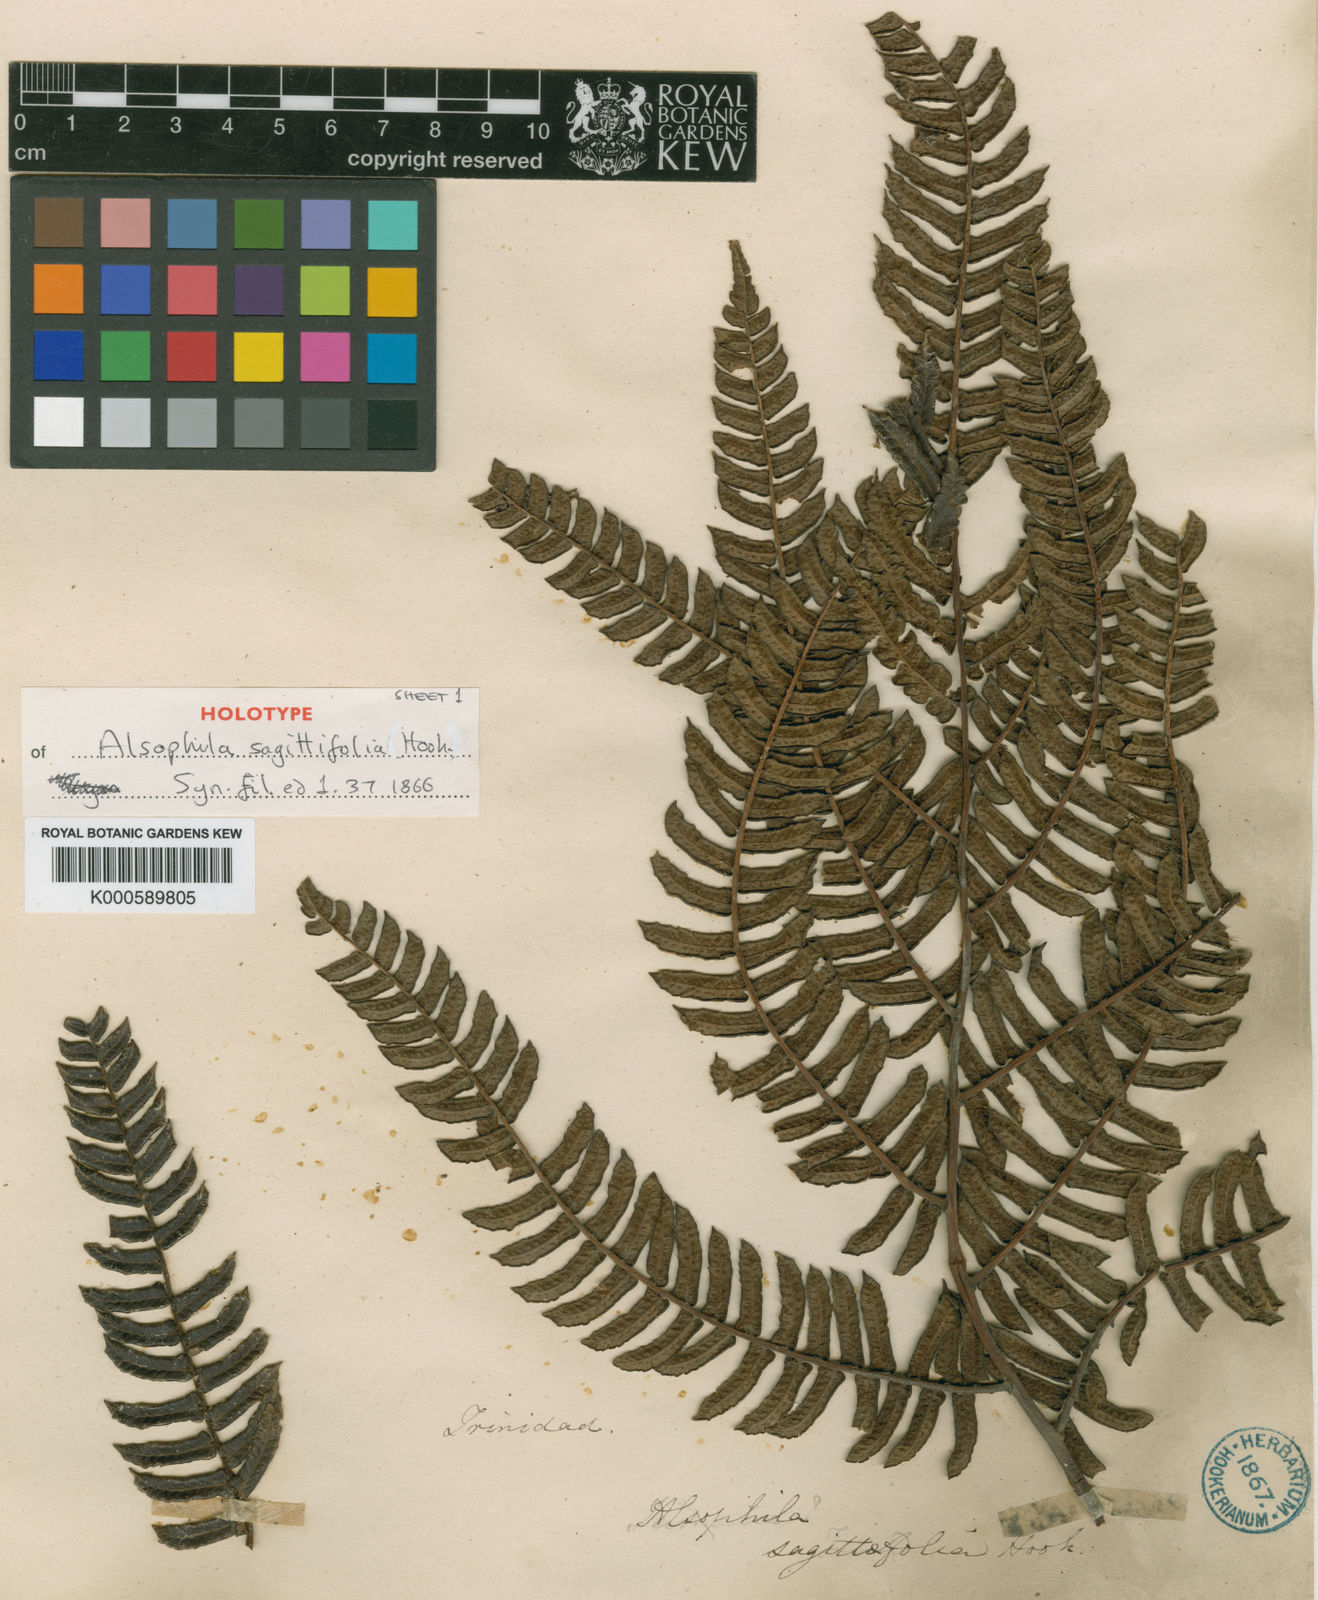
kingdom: Plantae
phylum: Tracheophyta
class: Polypodiopsida
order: Cyatheales
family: Cyatheaceae
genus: Cyathea
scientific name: Cyathea sagittifolia
